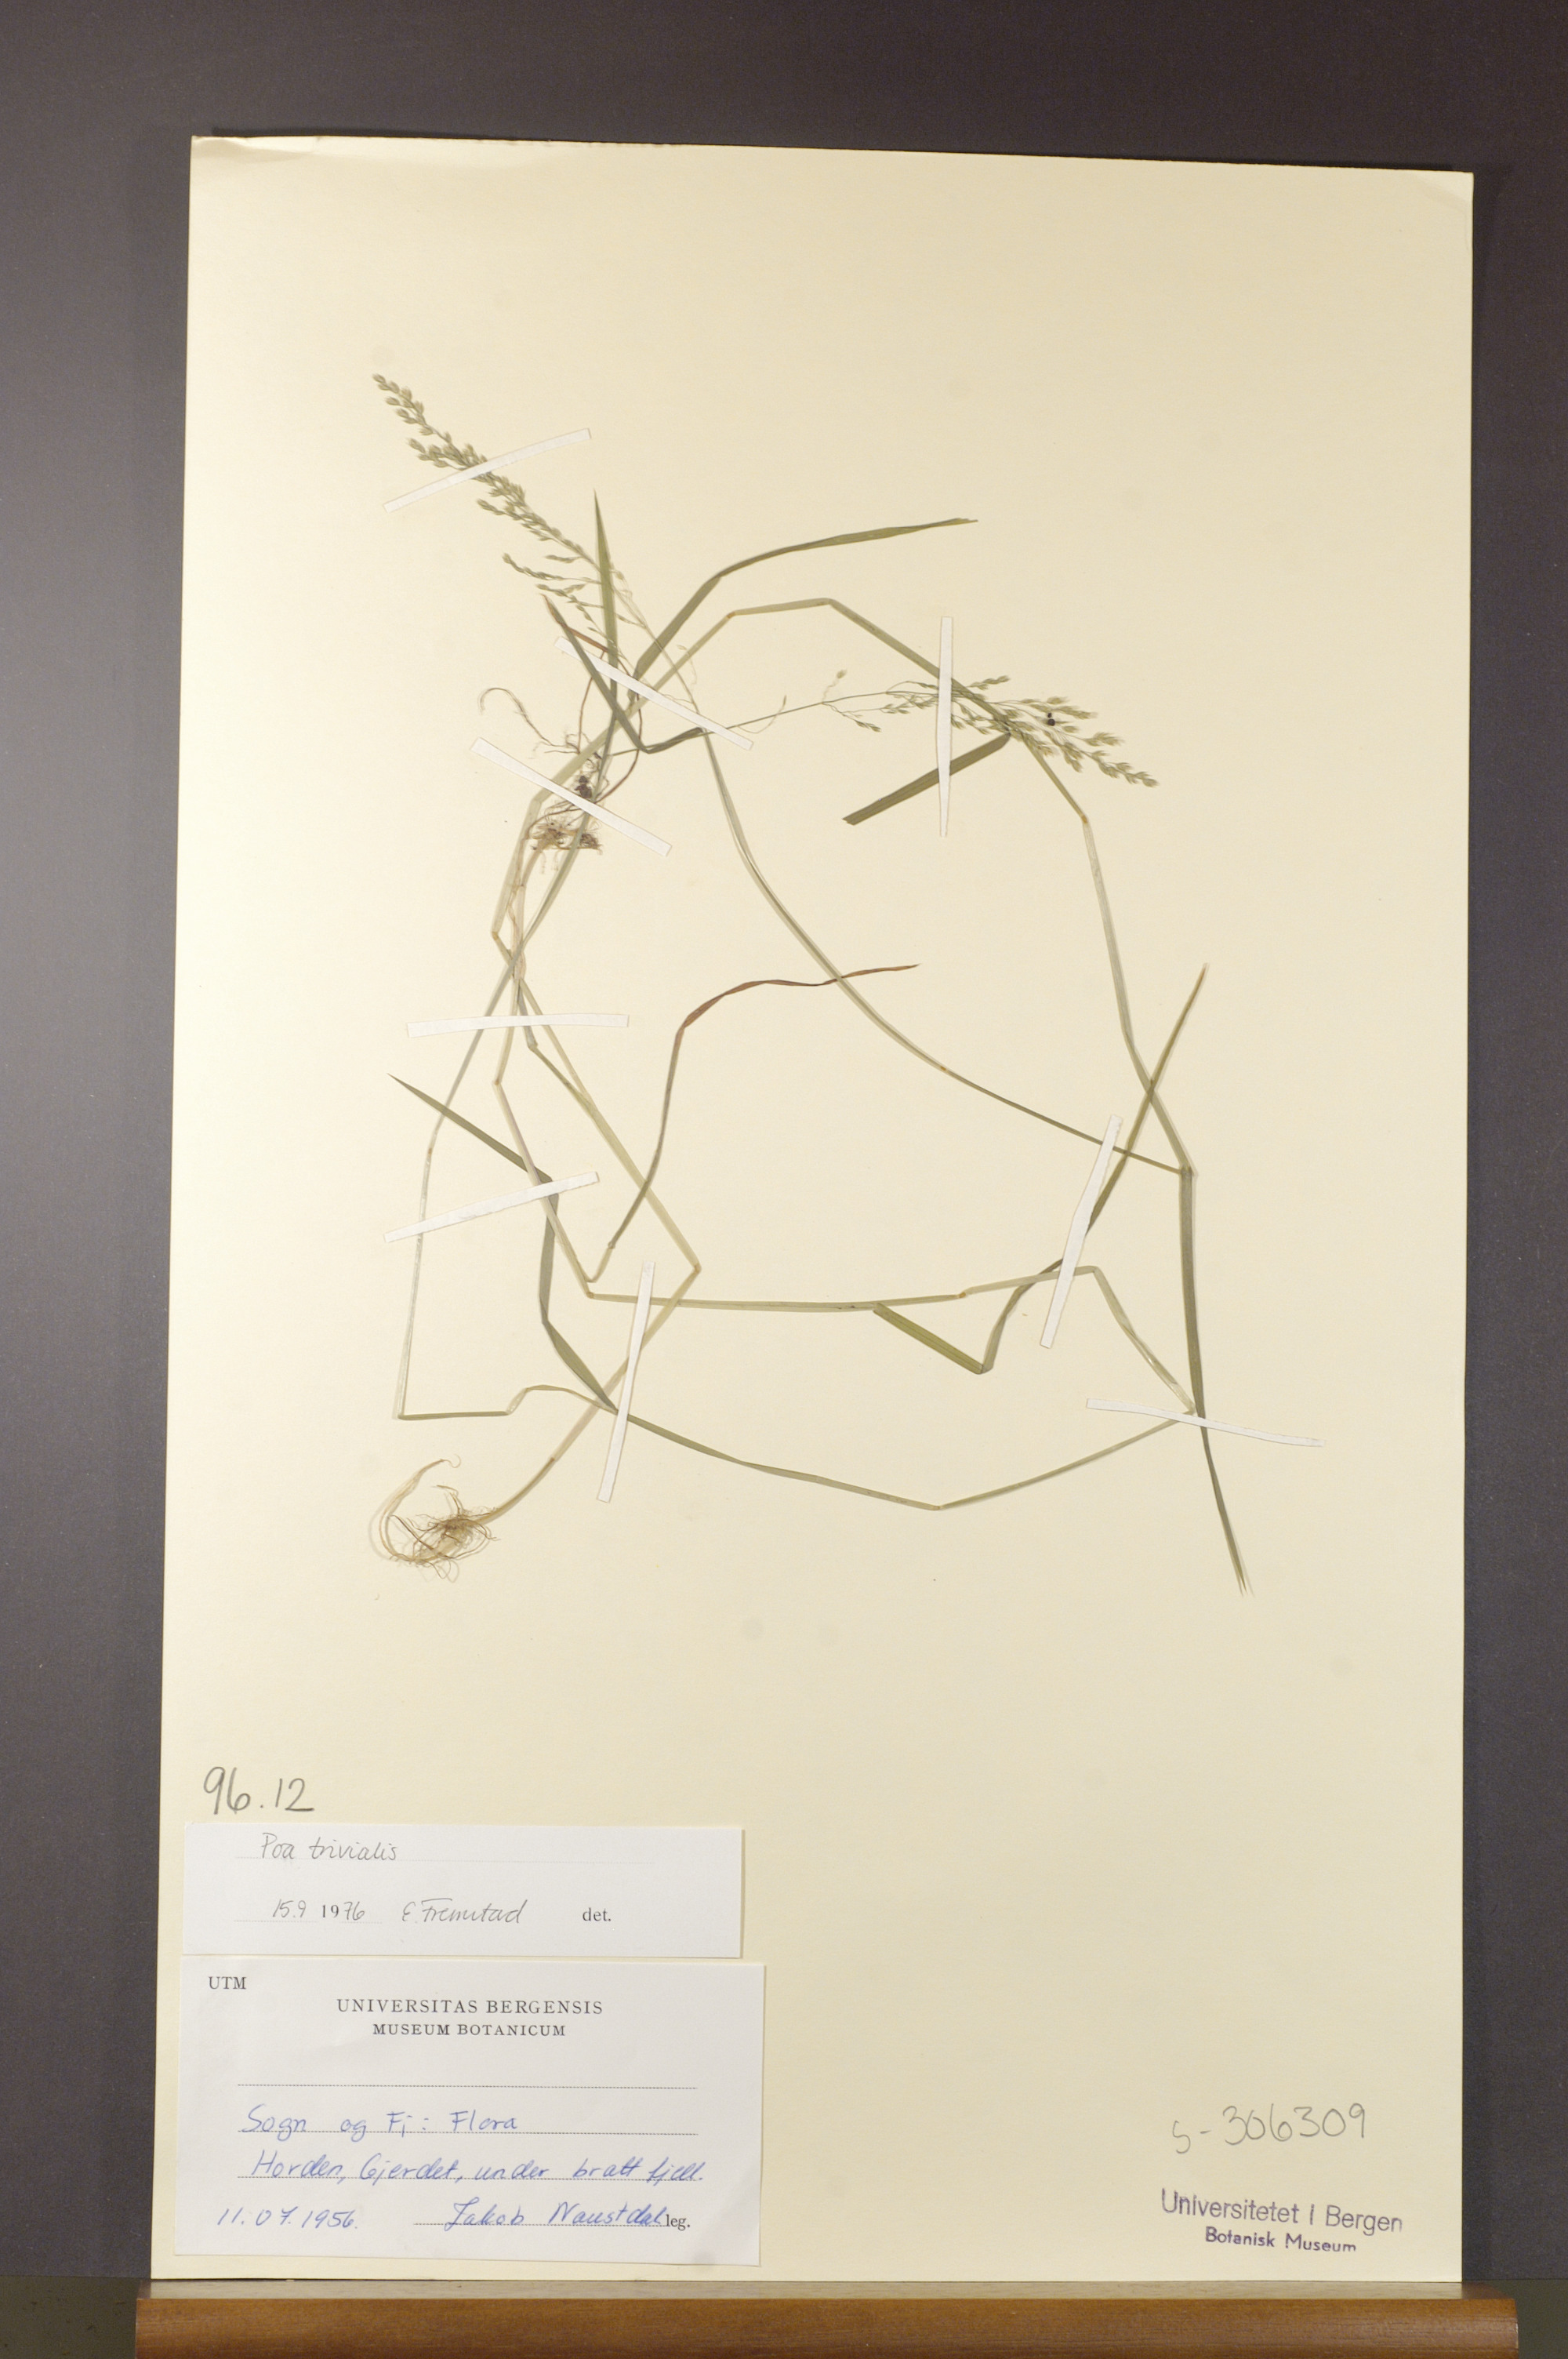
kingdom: Plantae
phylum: Tracheophyta
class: Liliopsida
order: Poales
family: Poaceae
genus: Poa
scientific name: Poa trivialis
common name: Rough bluegrass
